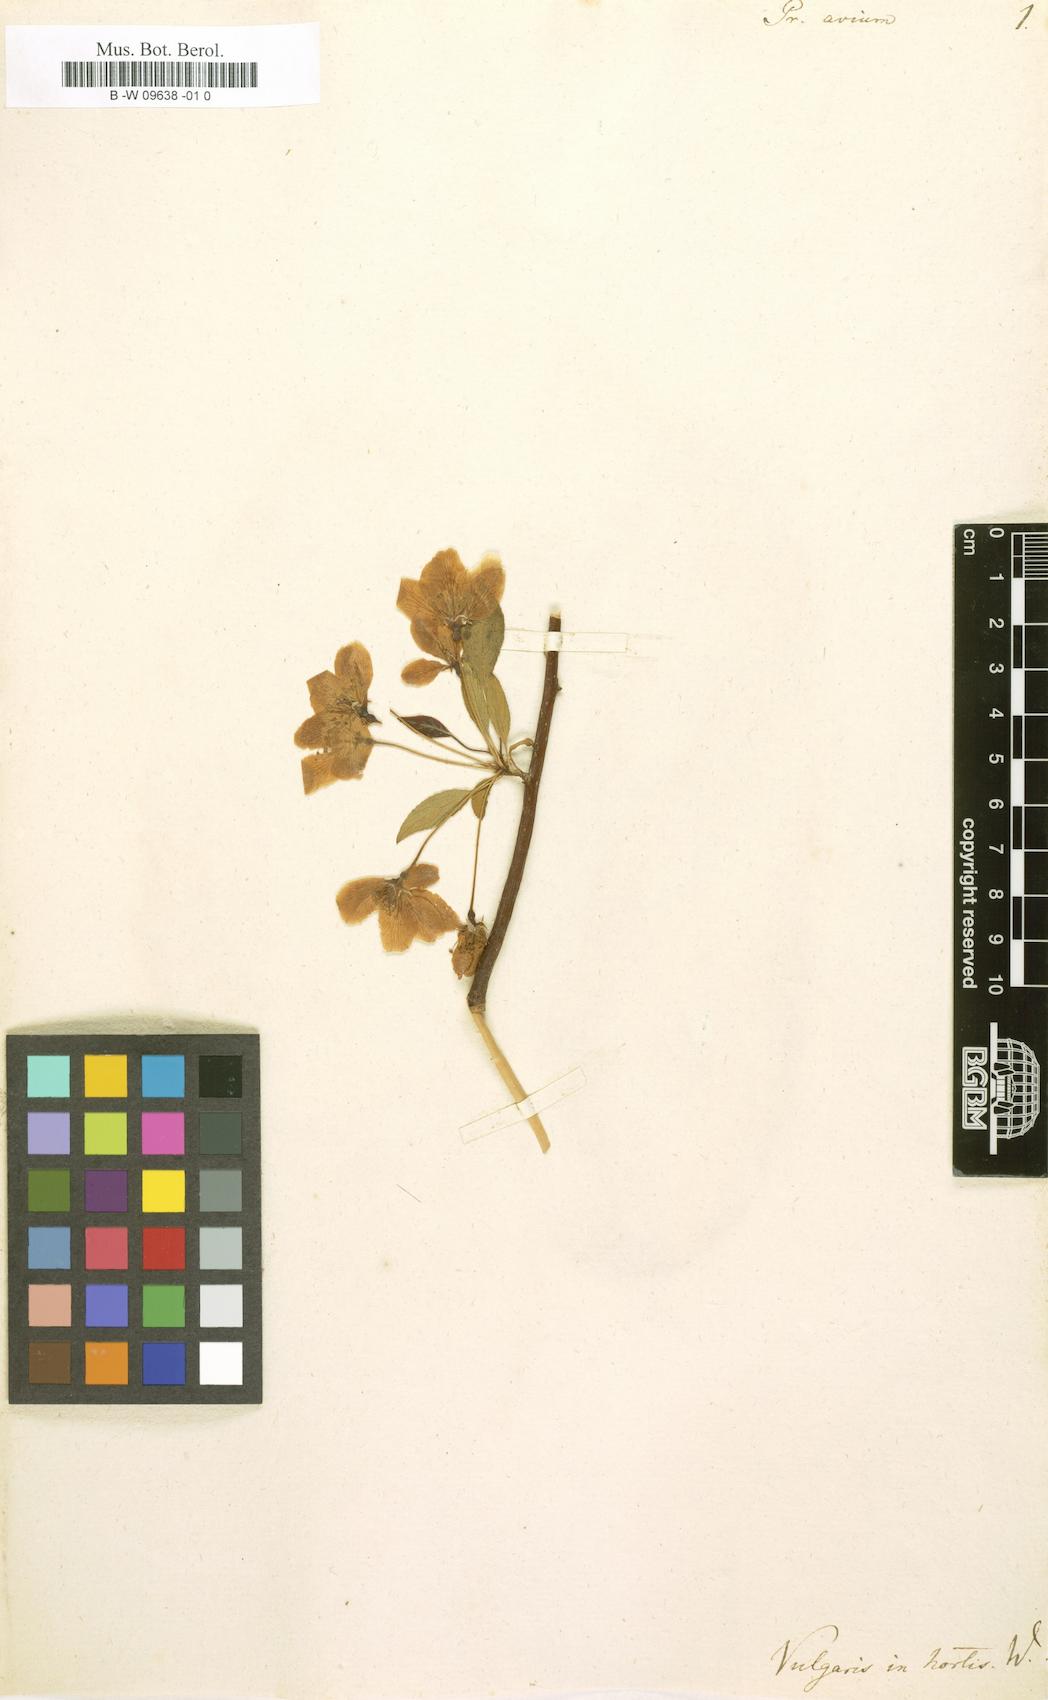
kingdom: Plantae
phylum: Tracheophyta
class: Magnoliopsida
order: Rosales
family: Rosaceae
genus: Prunus
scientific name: Prunus avium
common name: Sweet cherry
